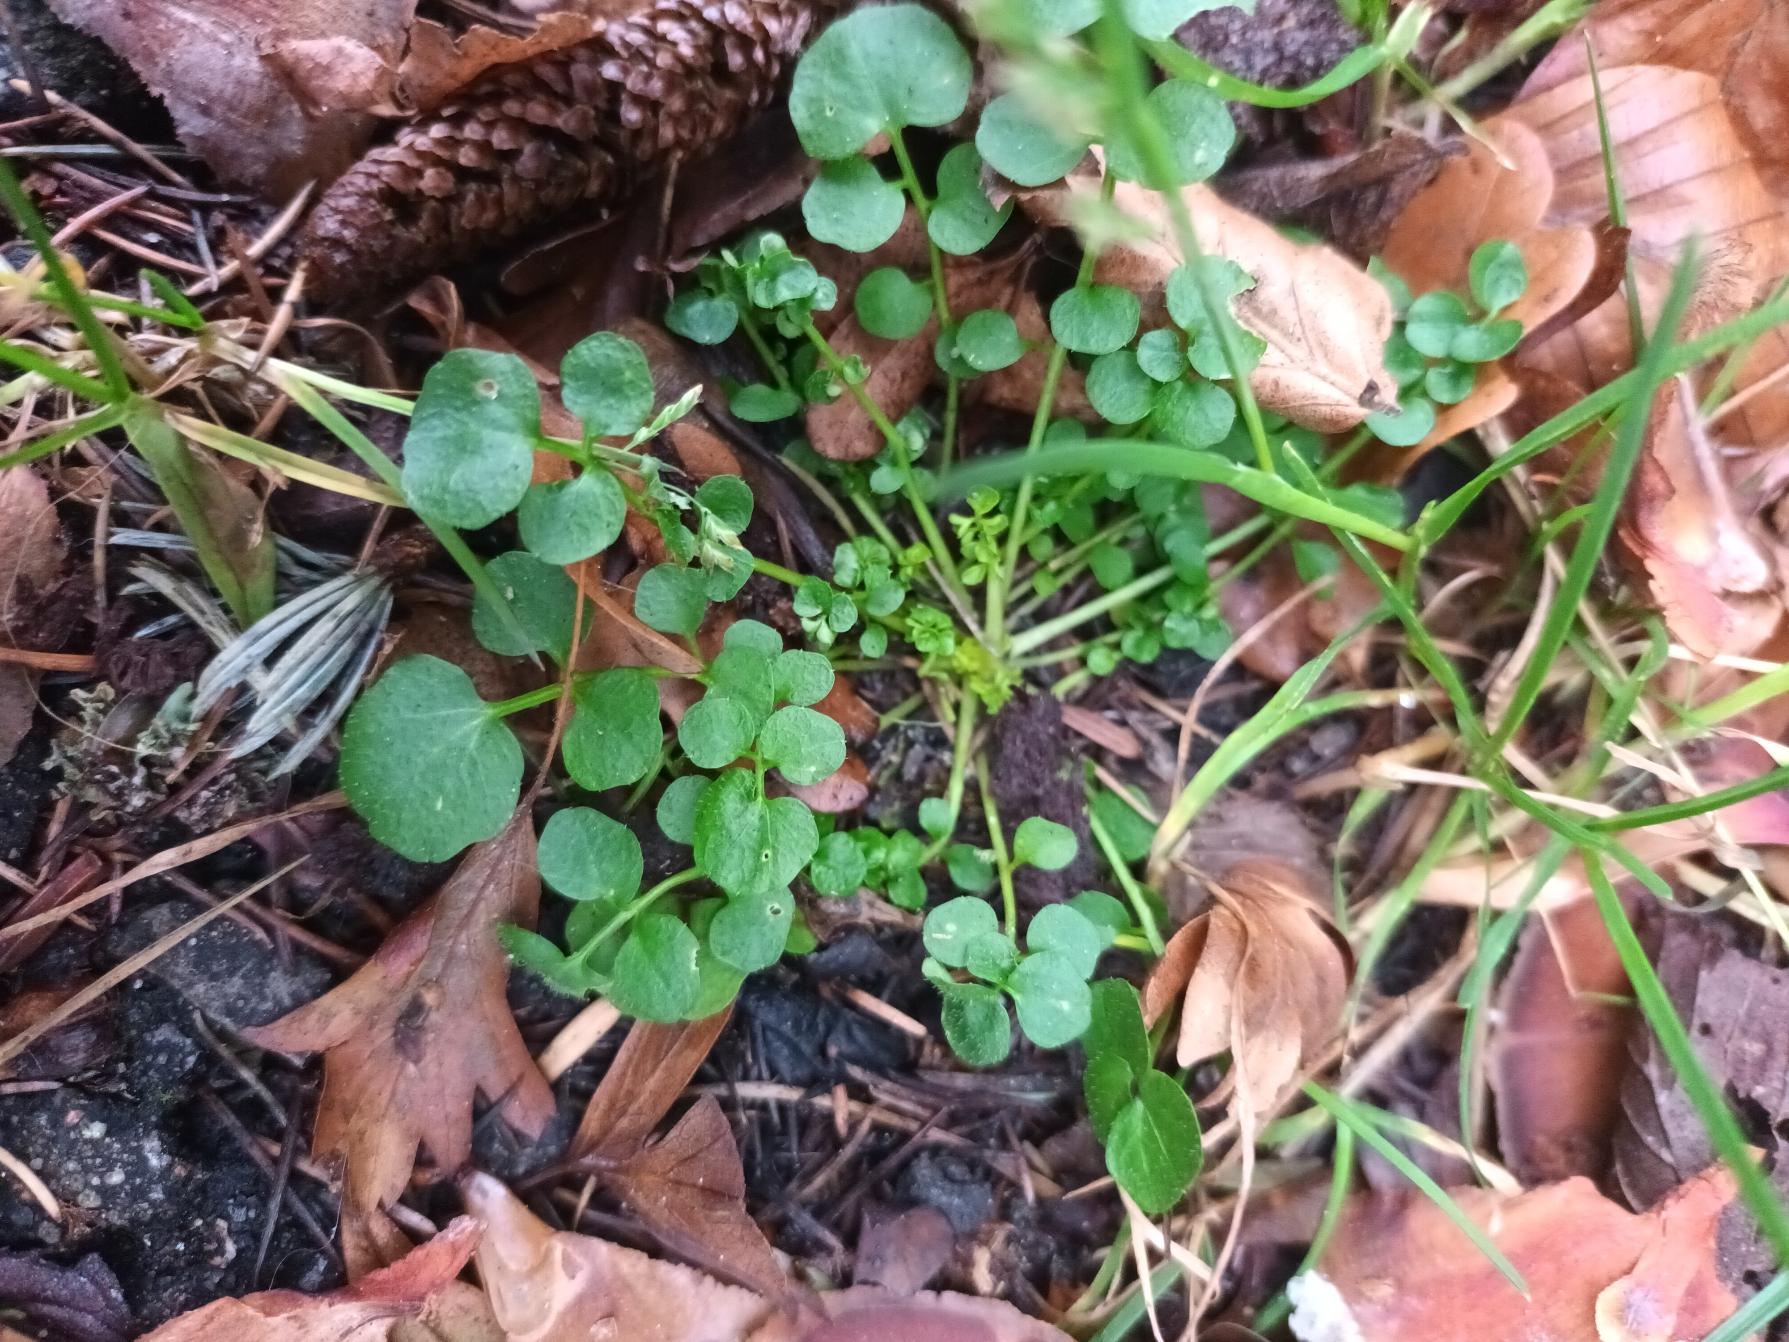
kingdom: Plantae
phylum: Tracheophyta
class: Magnoliopsida
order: Brassicales
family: Brassicaceae
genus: Cardamine
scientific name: Cardamine hirsuta
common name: Roset-springklap
